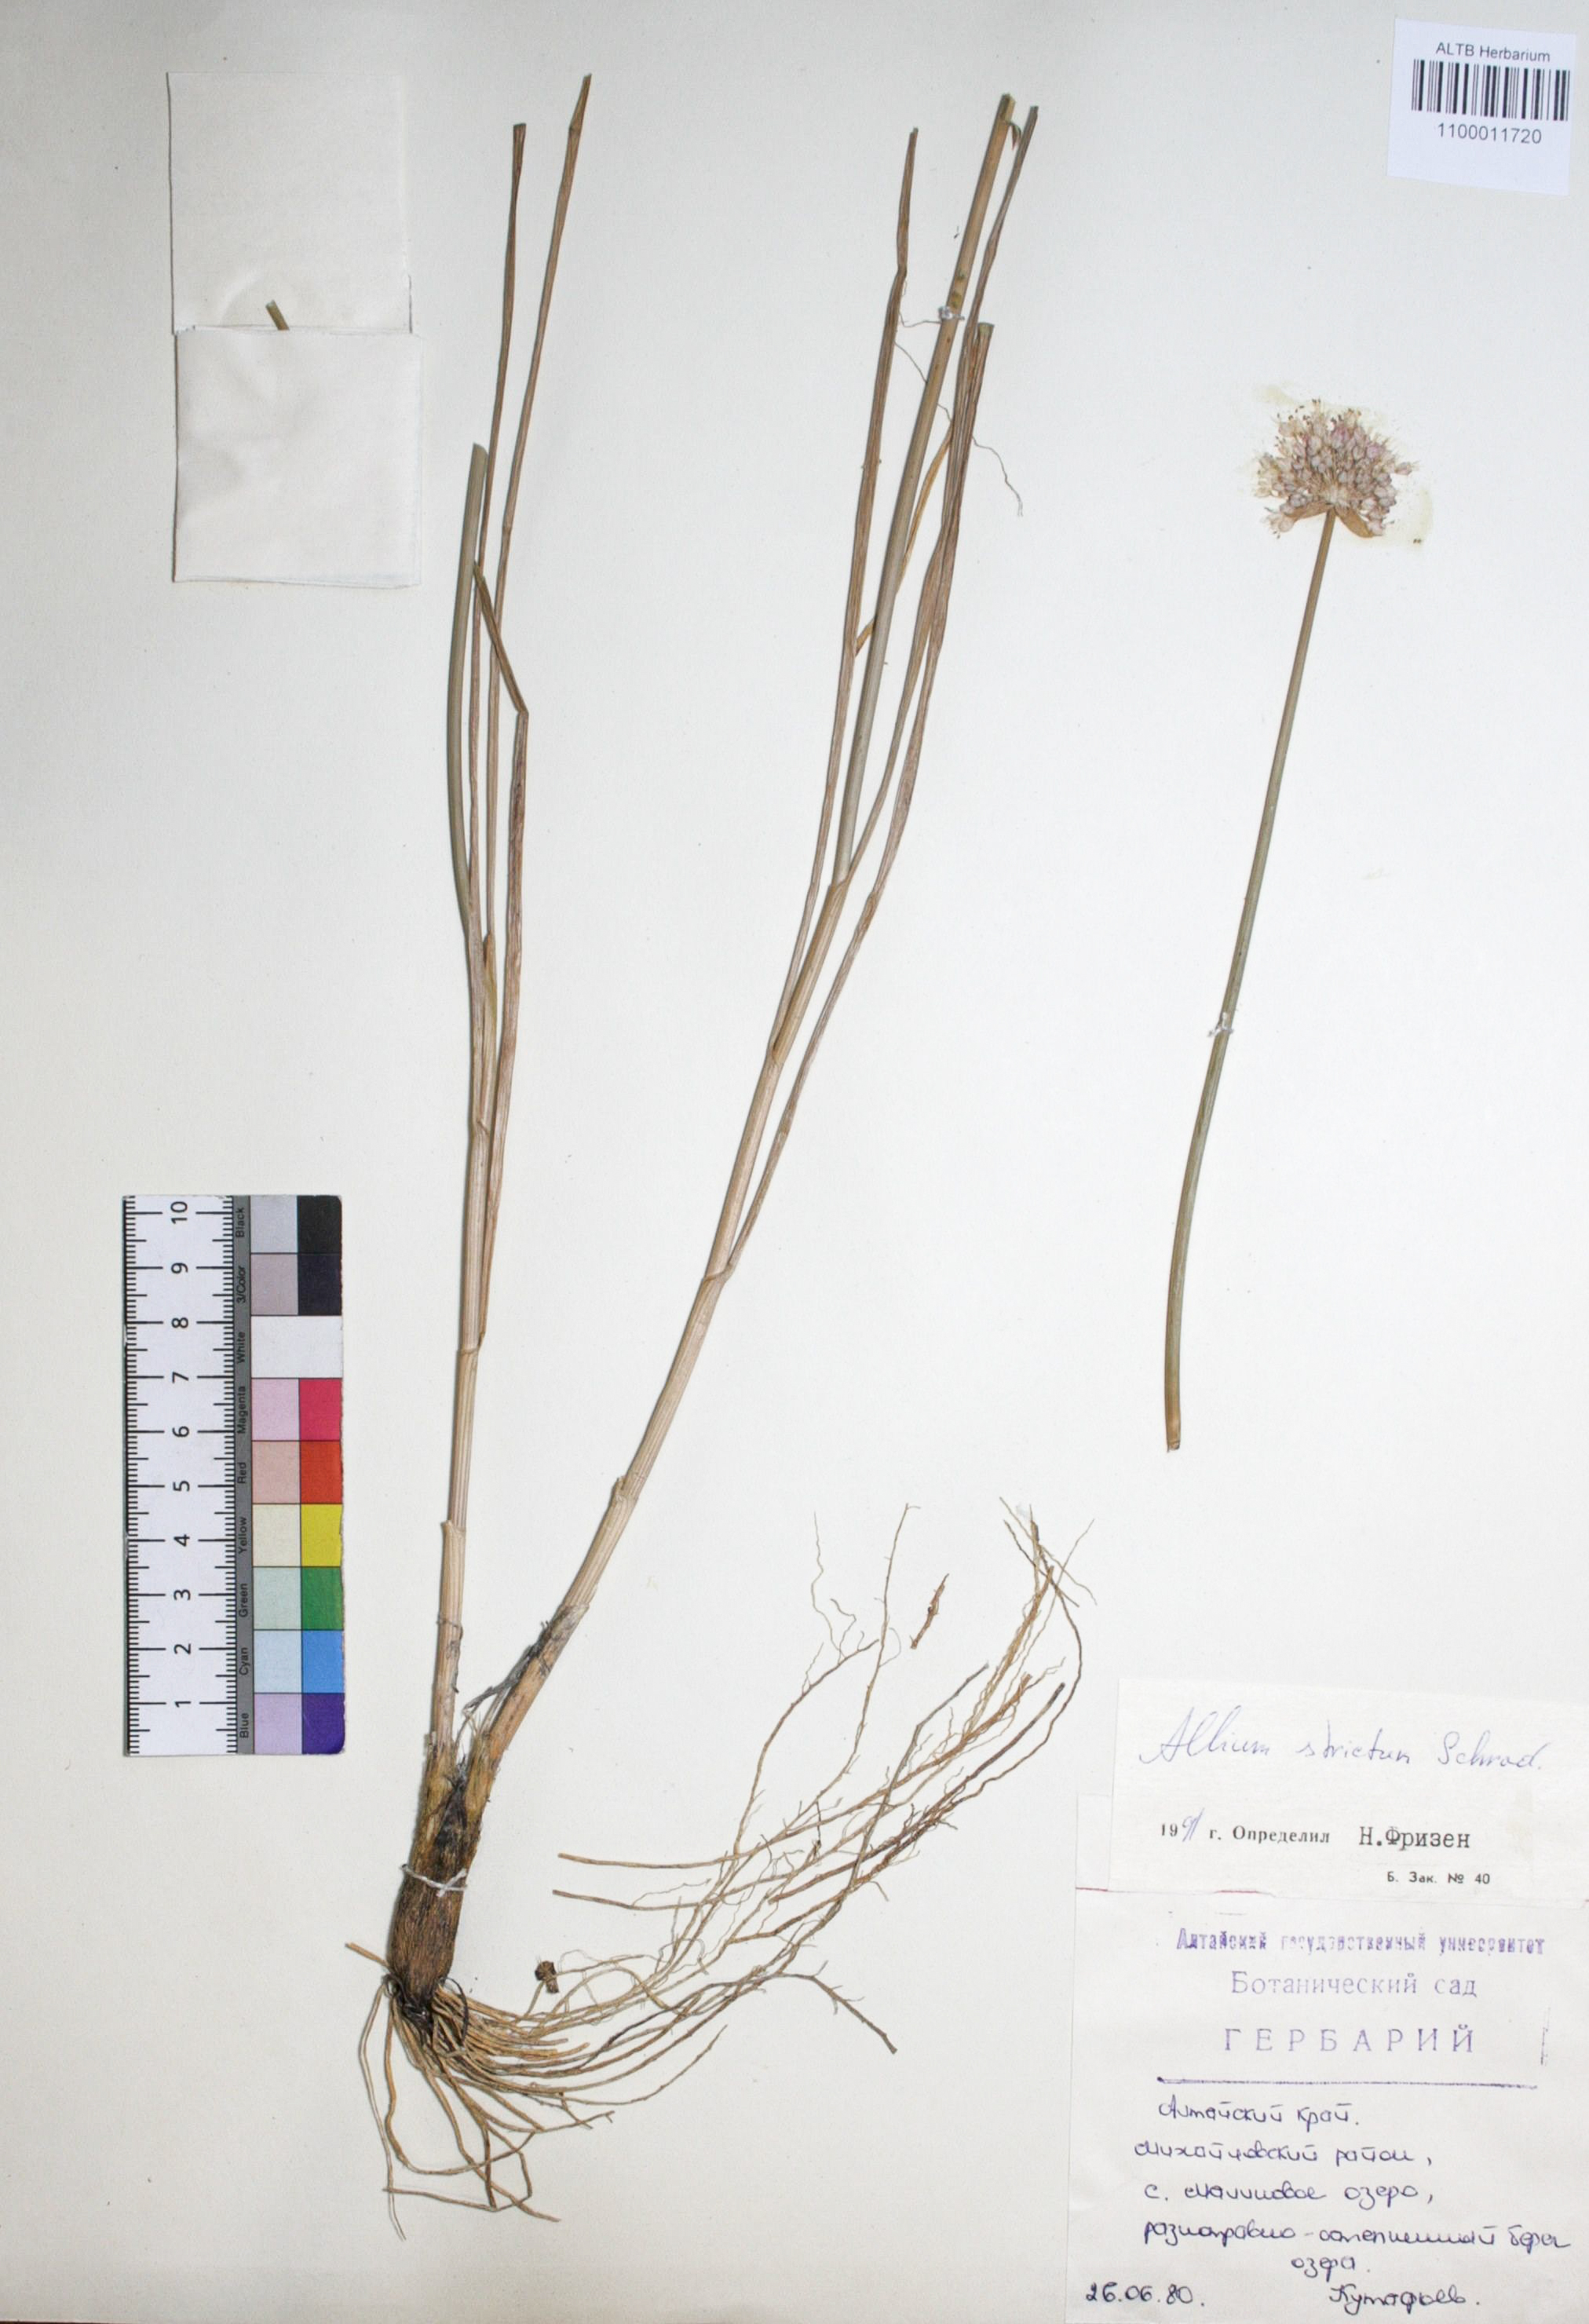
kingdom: Plantae
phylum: Tracheophyta
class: Liliopsida
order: Asparagales
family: Amaryllidaceae
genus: Allium
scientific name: Allium strictum
